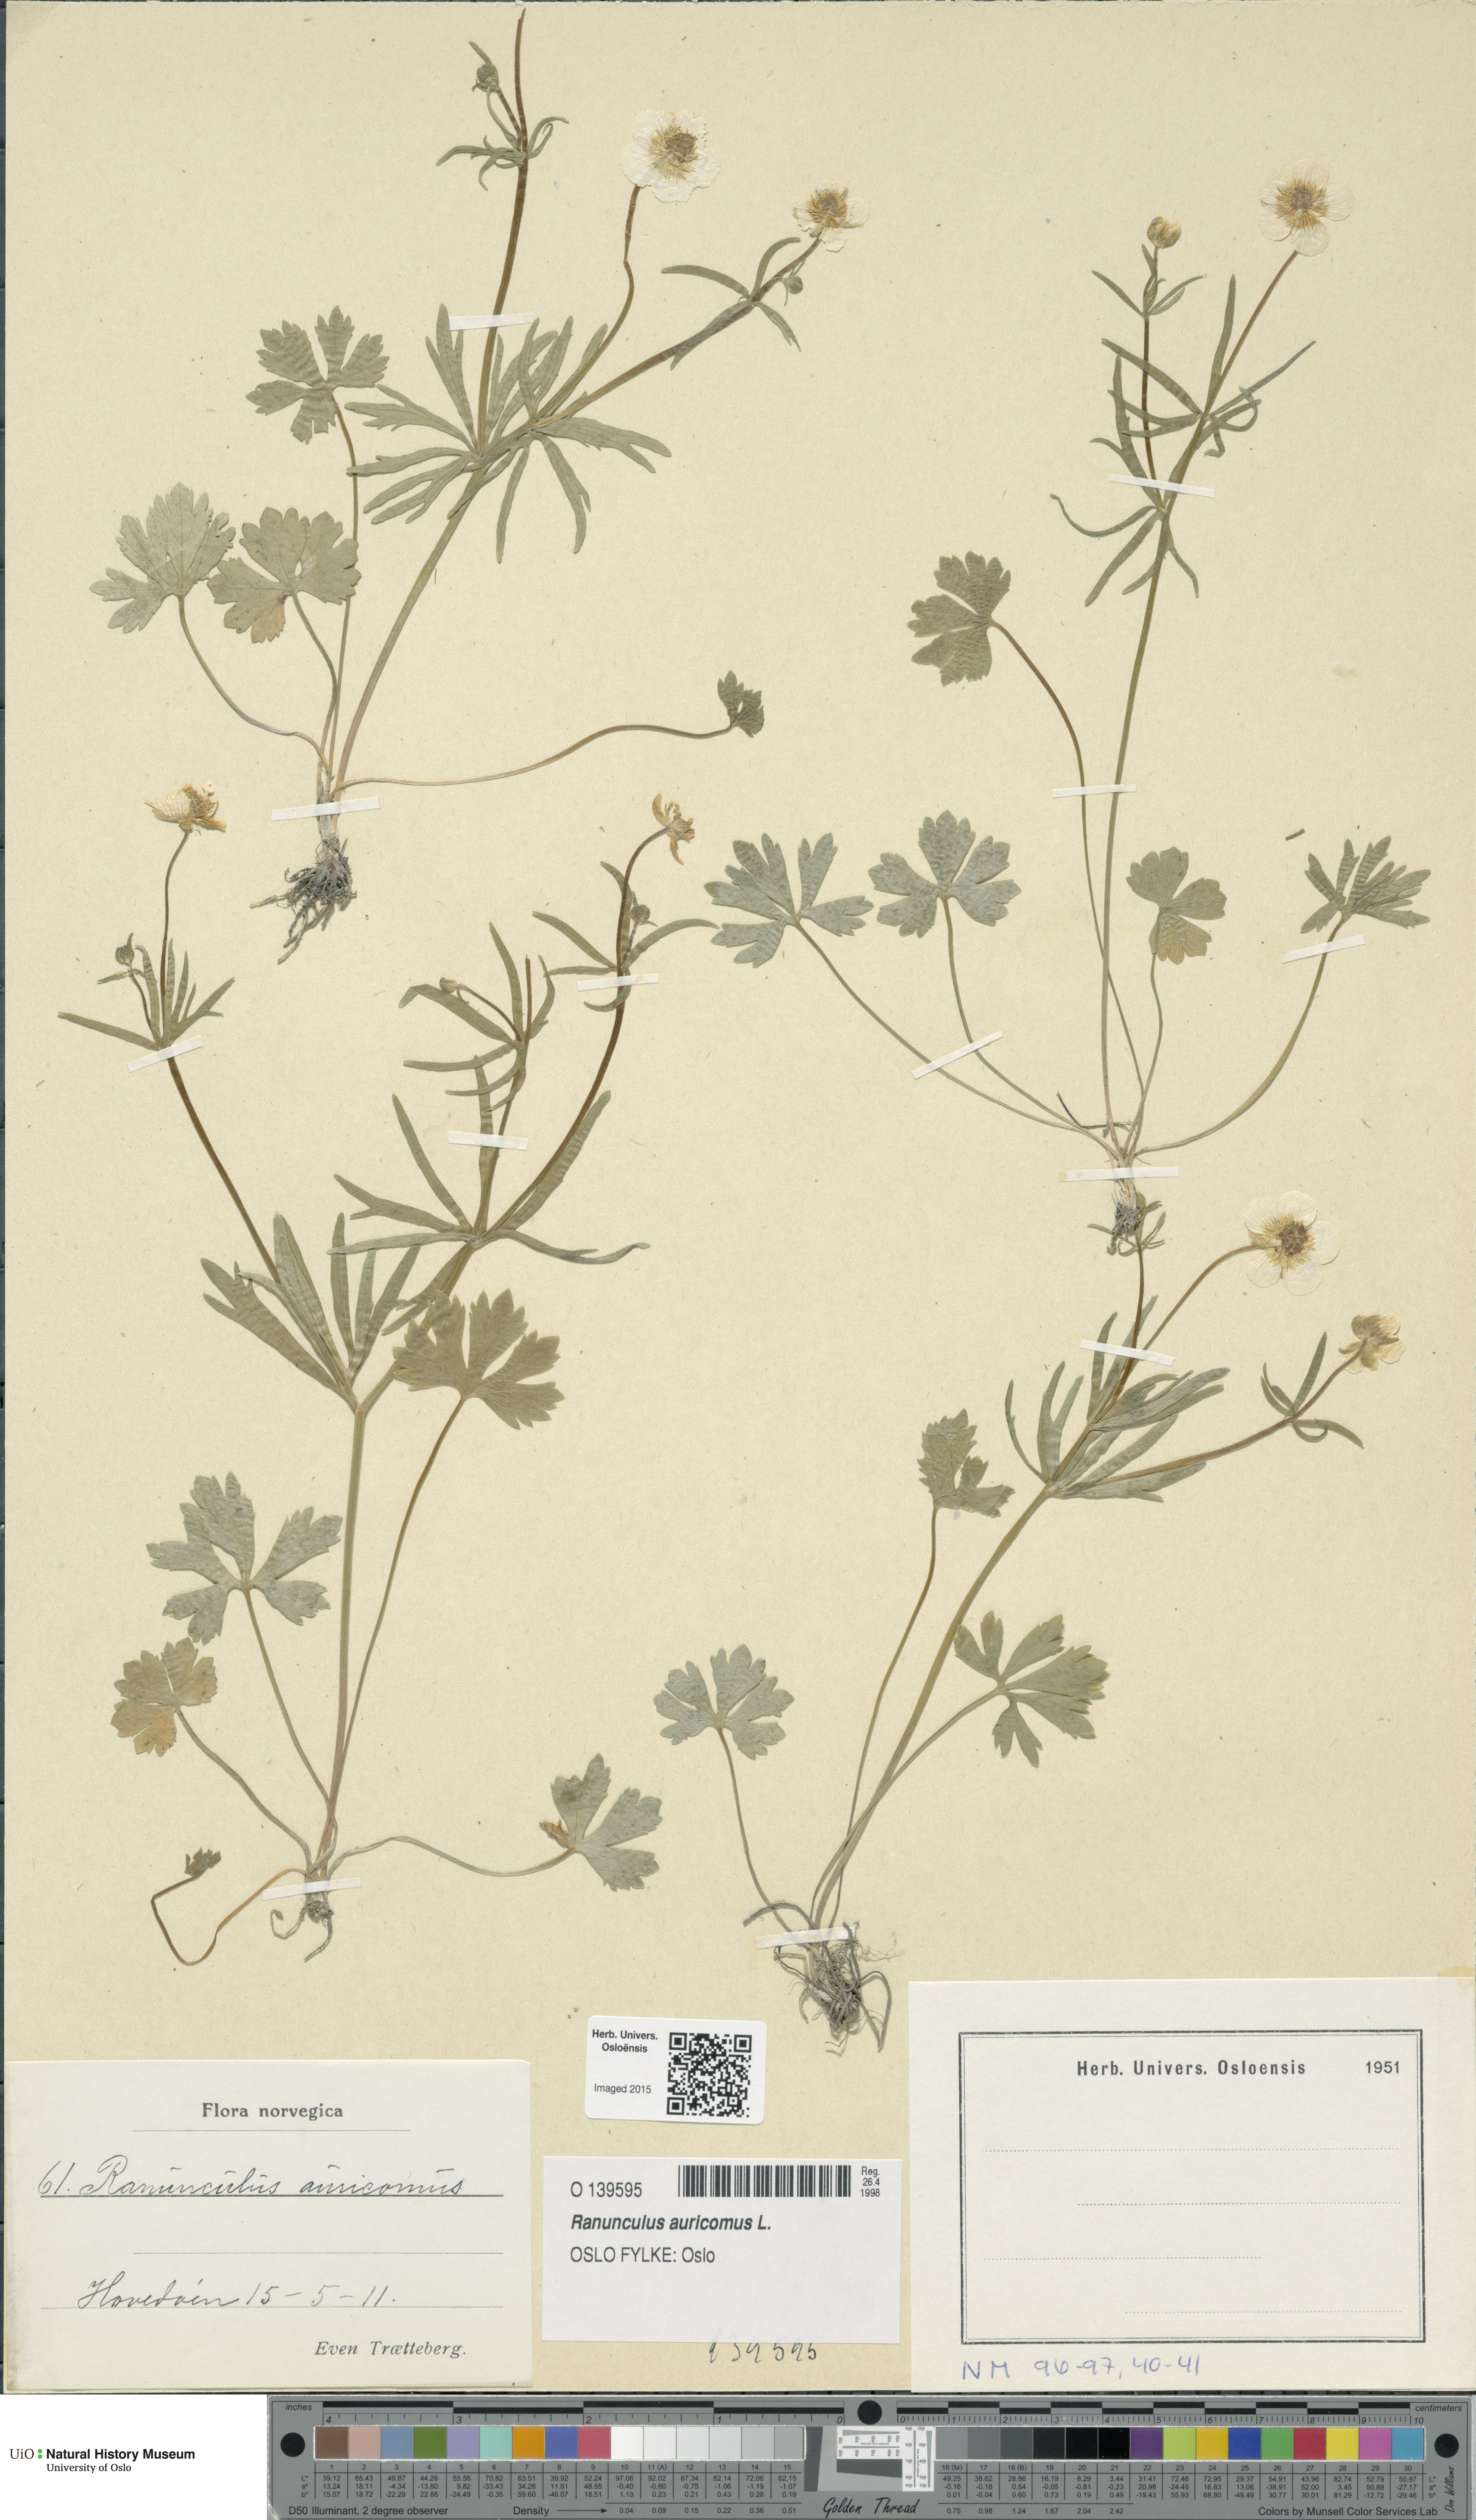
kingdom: Plantae
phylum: Tracheophyta
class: Magnoliopsida
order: Ranunculales
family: Ranunculaceae
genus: Ranunculus
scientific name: Ranunculus auricomus
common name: Goldilocks buttercup
